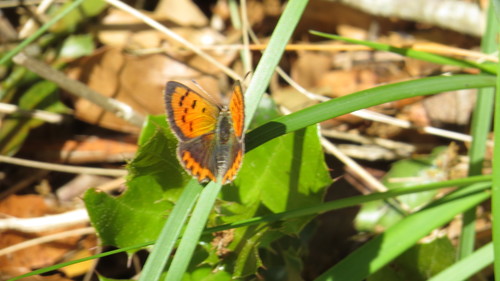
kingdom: Animalia
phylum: Arthropoda
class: Insecta
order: Lepidoptera
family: Lycaenidae
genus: Lycaena
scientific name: Lycaena phlaeas
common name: Small copper
